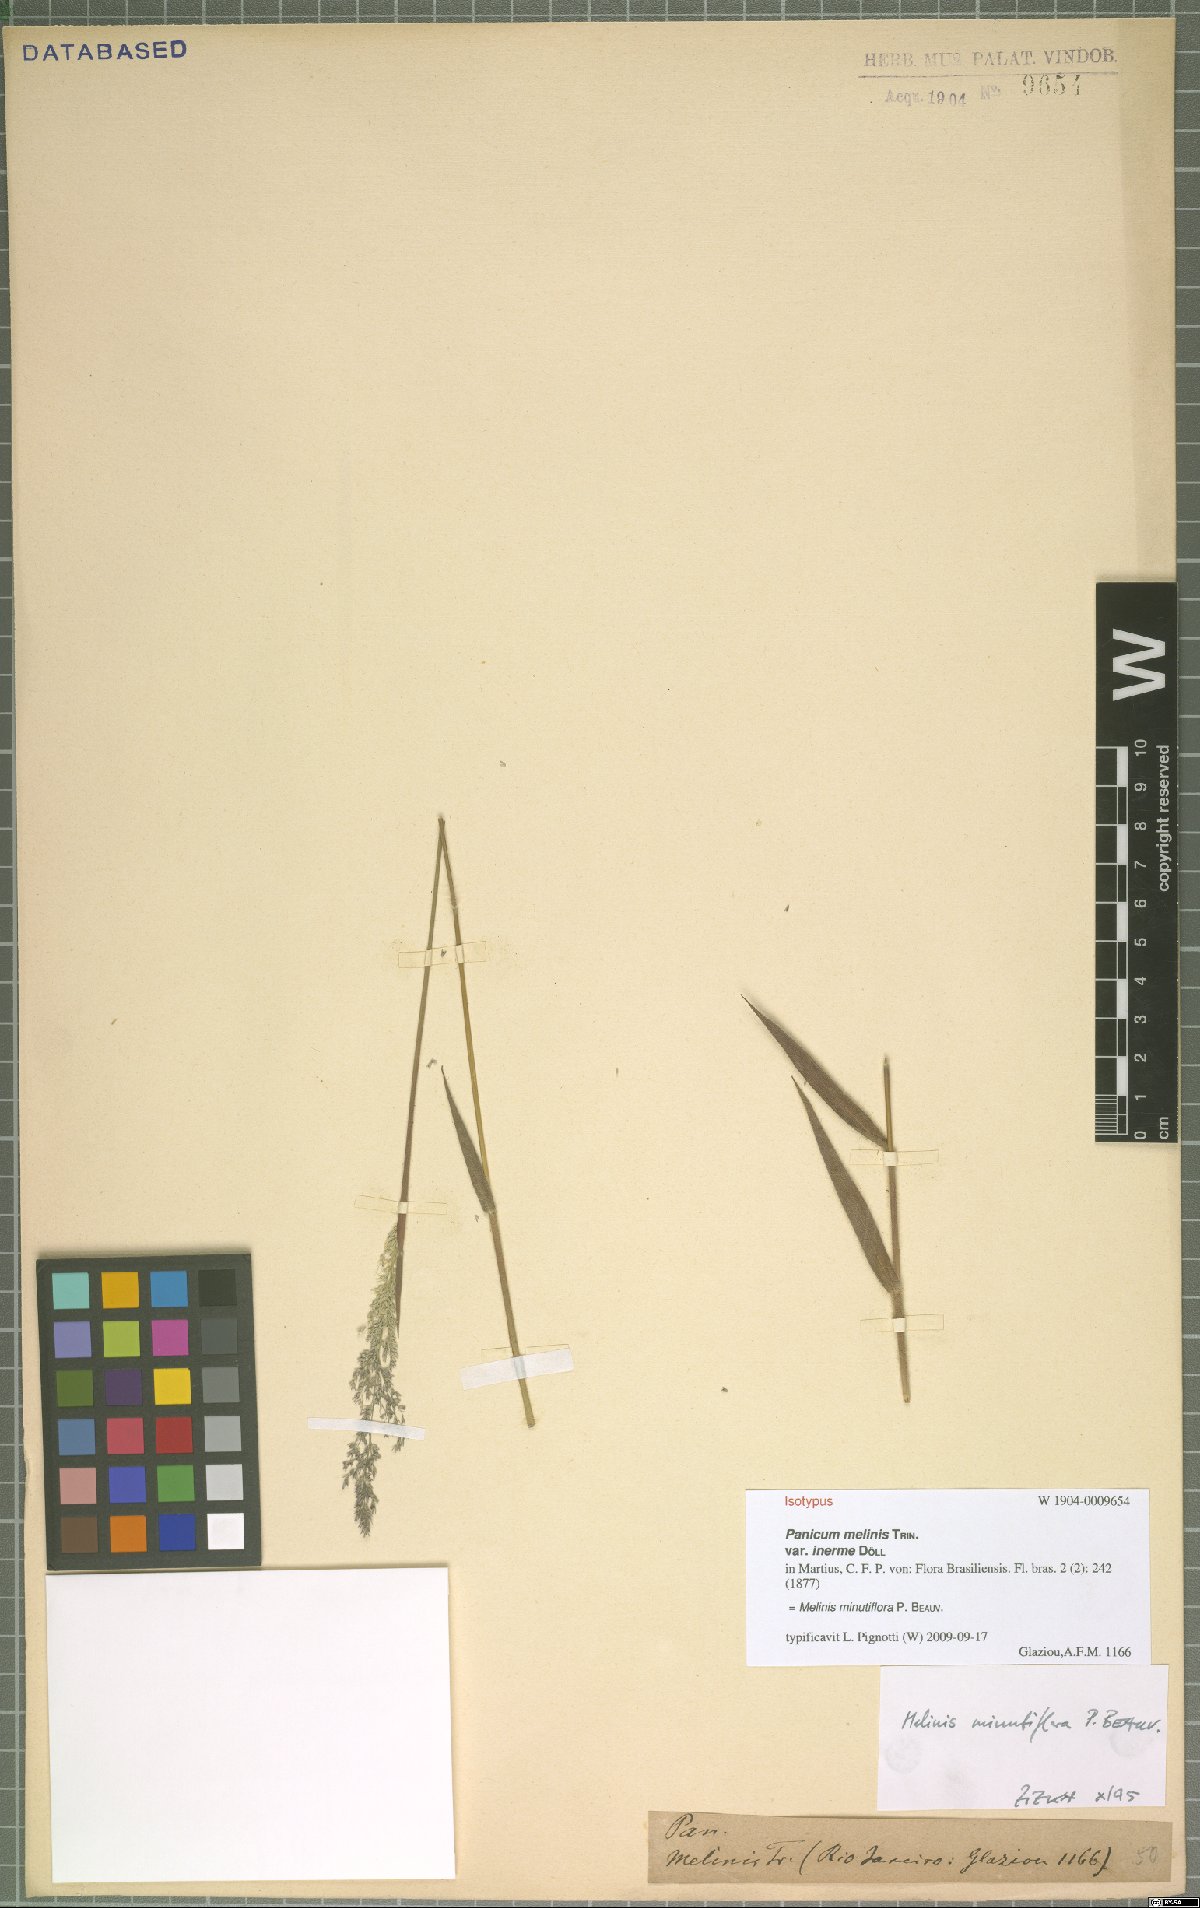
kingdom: Plantae
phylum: Tracheophyta
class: Liliopsida
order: Poales
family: Poaceae
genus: Melinis
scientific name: Melinis minutiflora
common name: Molassesgrass
